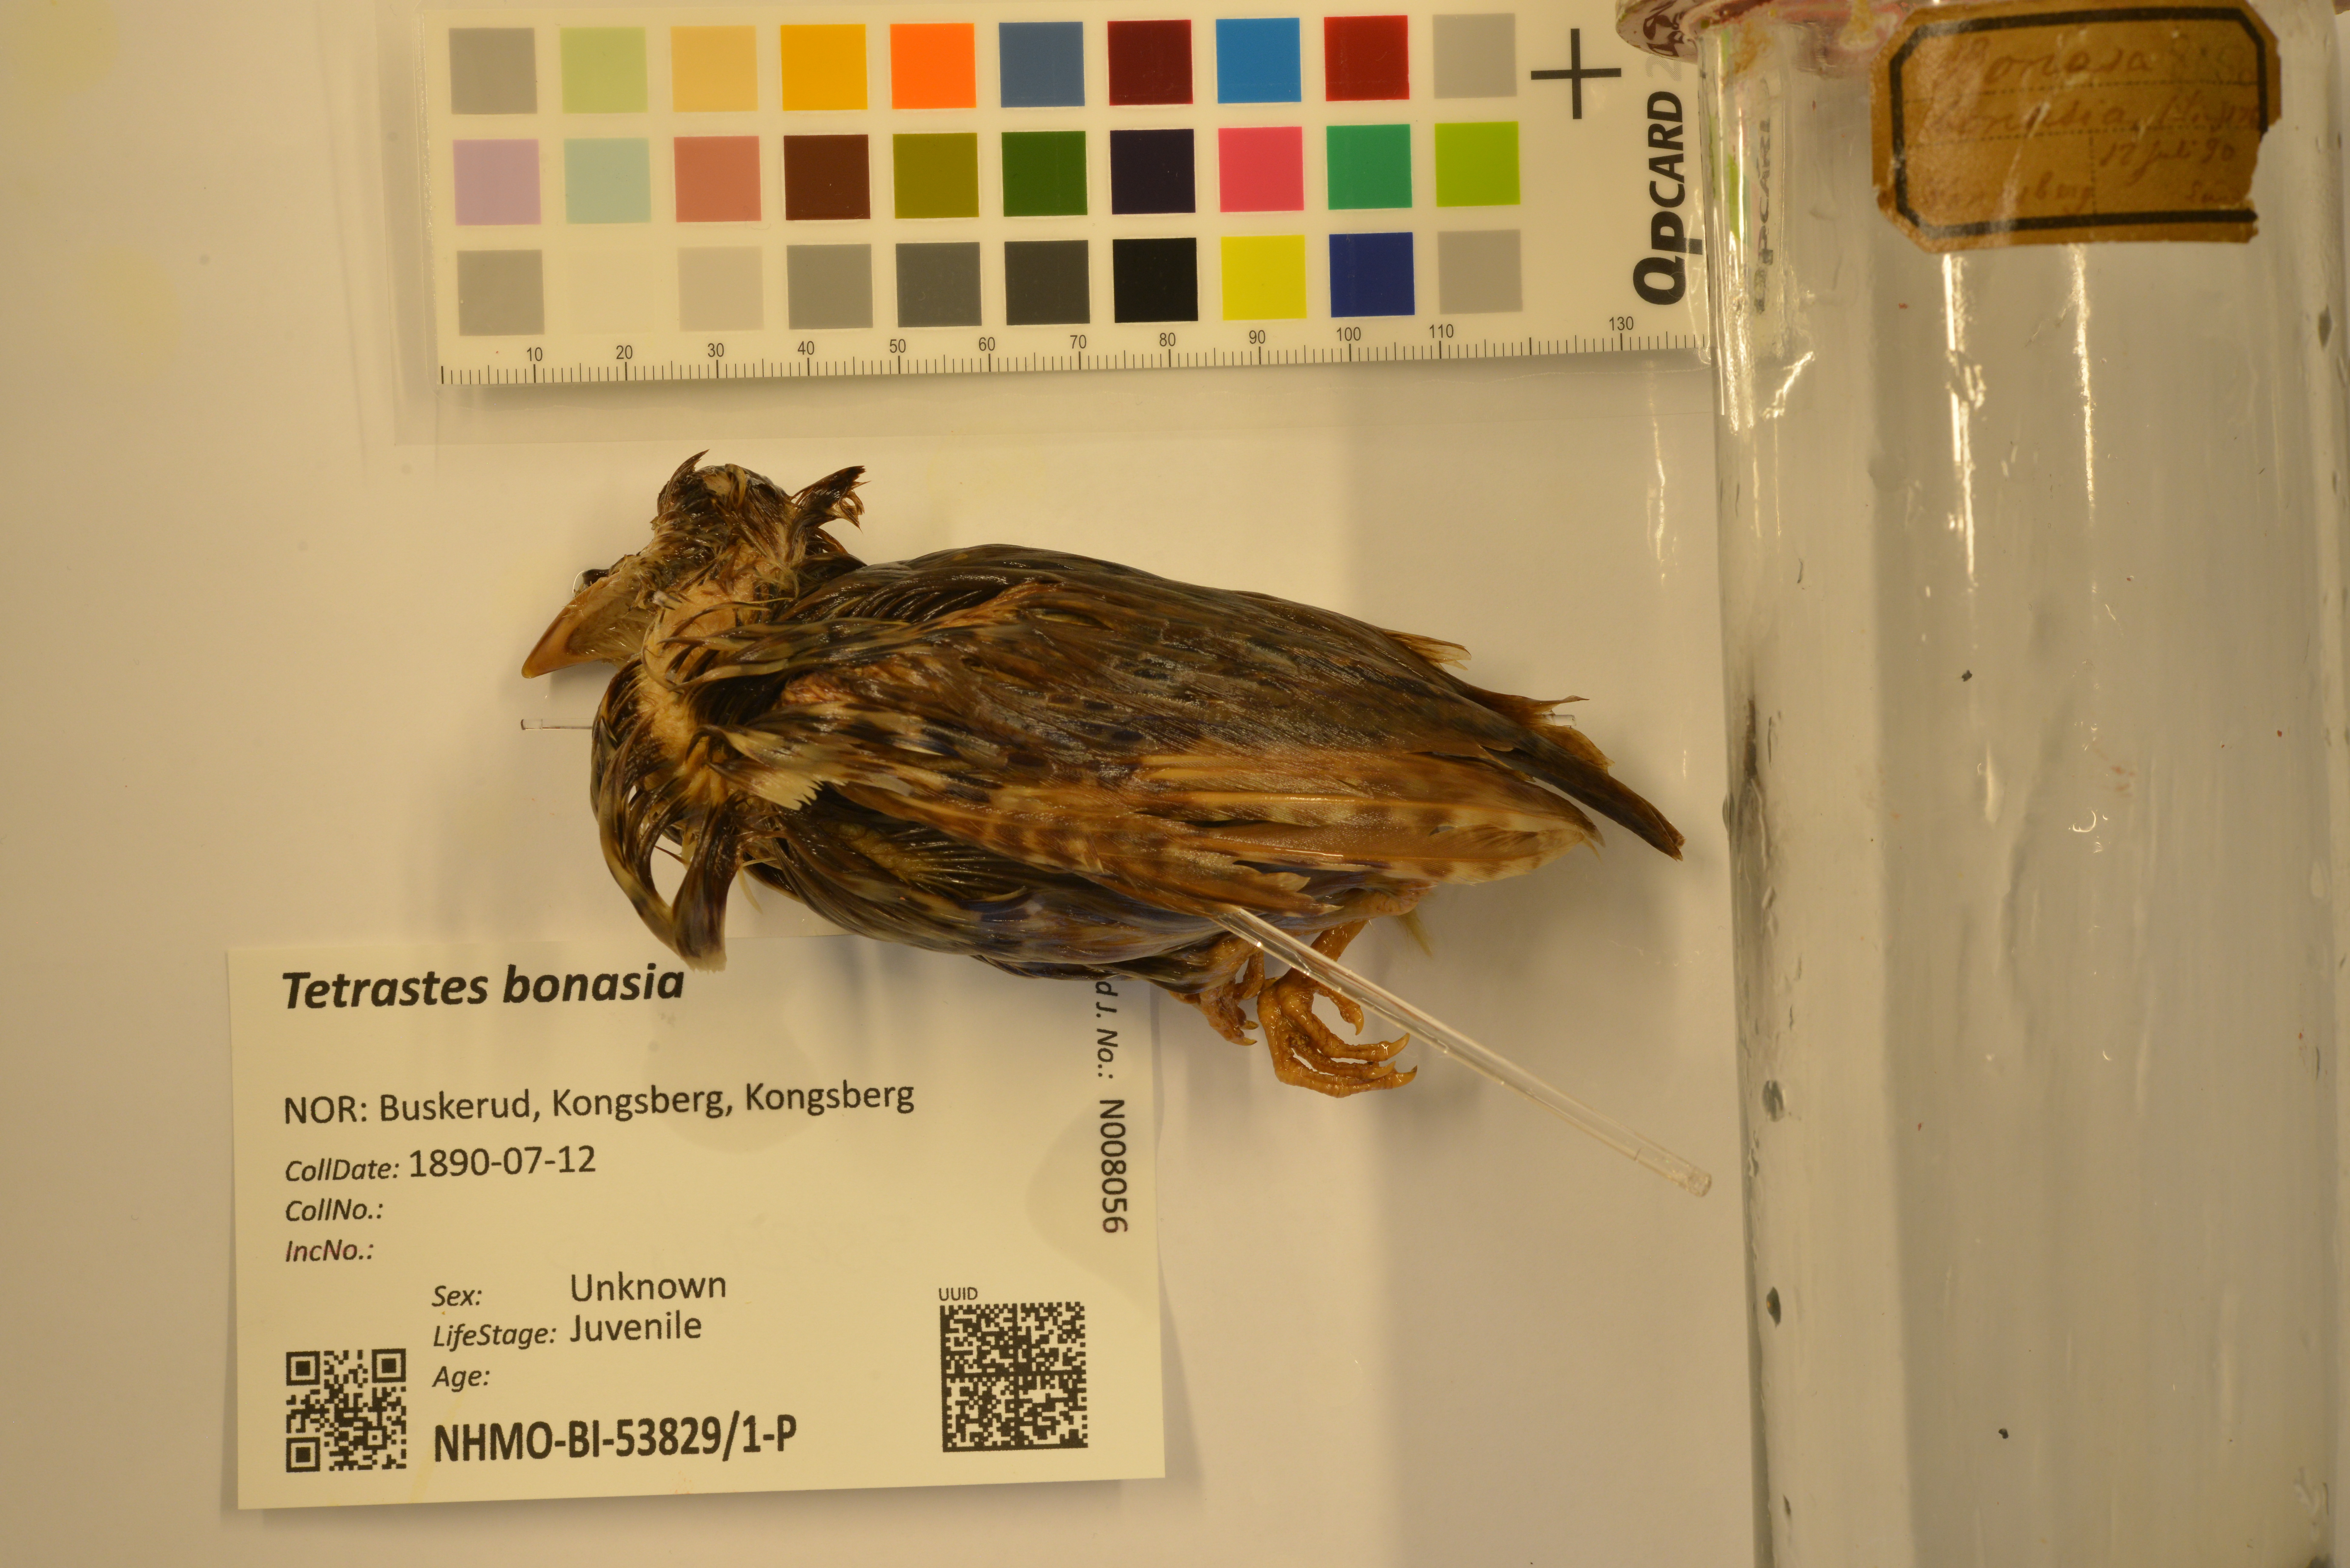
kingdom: Animalia
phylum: Chordata
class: Aves
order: Galliformes
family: Phasianidae
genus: Tetrastes
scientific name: Tetrastes bonasia
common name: Hazel grouse
